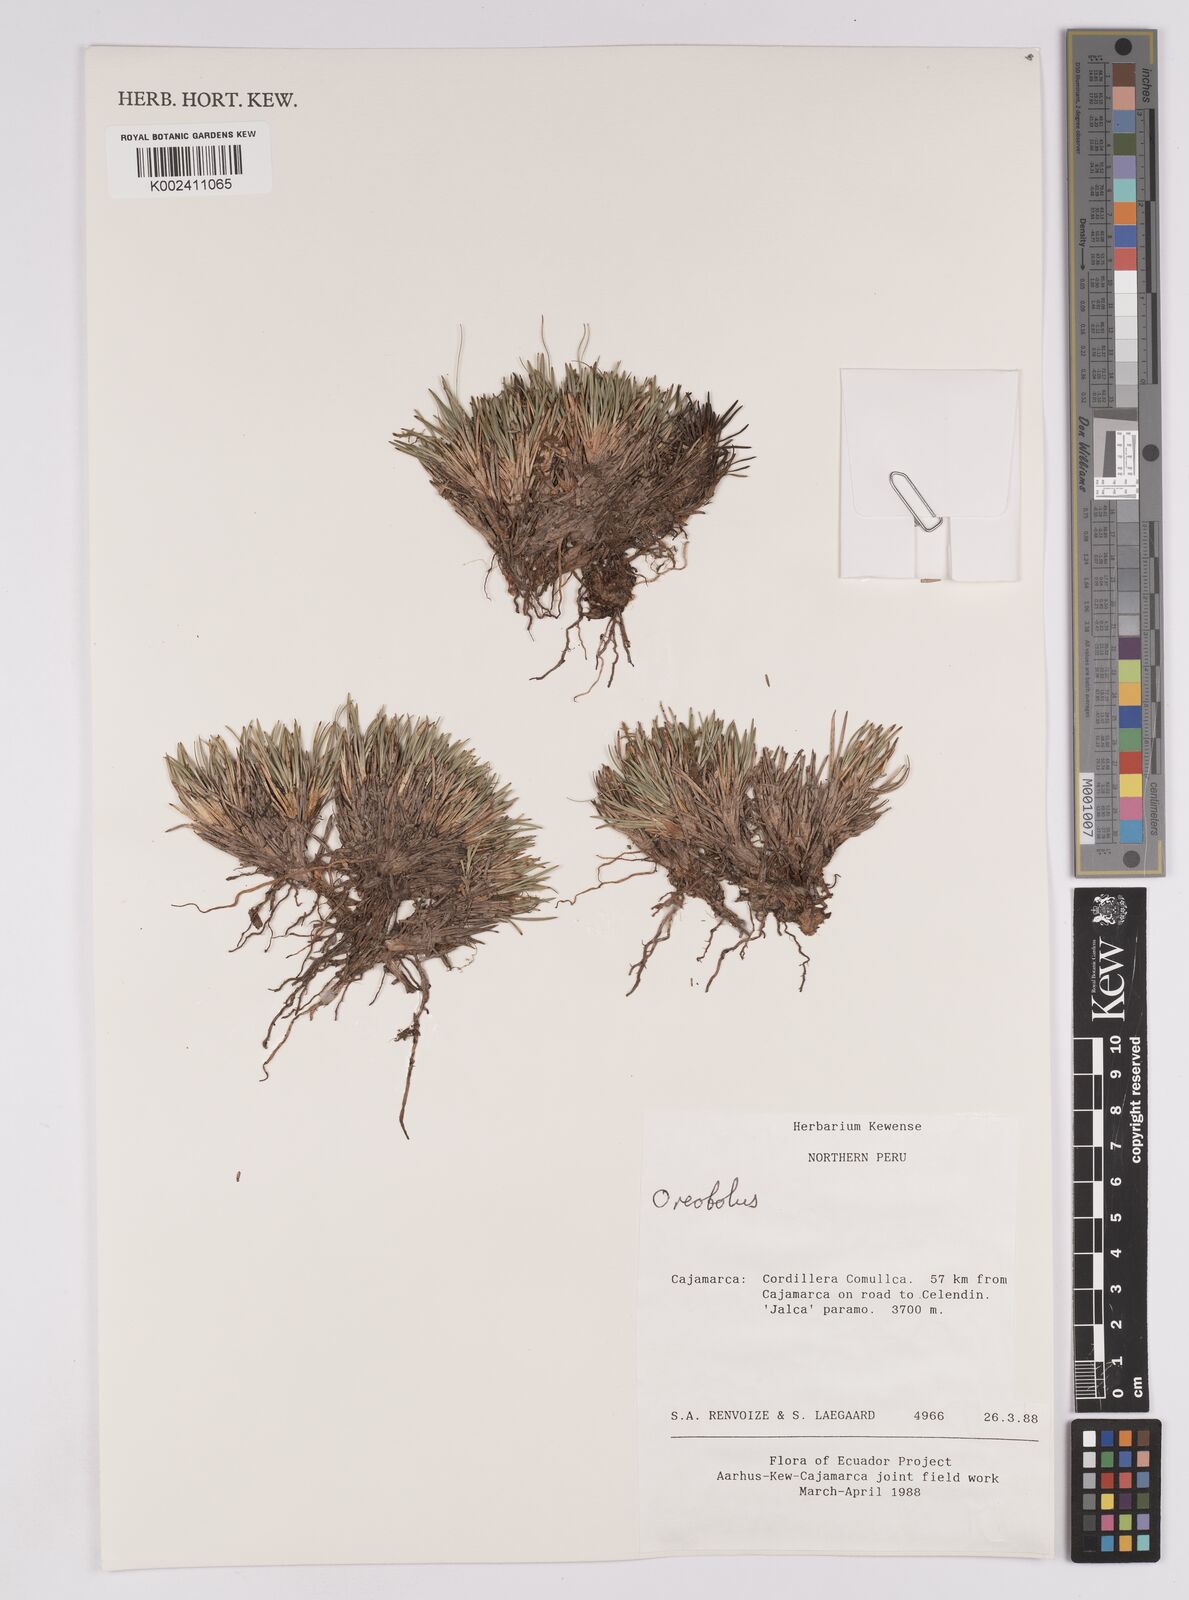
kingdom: Plantae
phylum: Tracheophyta
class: Liliopsida
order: Poales
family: Cyperaceae
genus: Oreobolus
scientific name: Oreobolus
